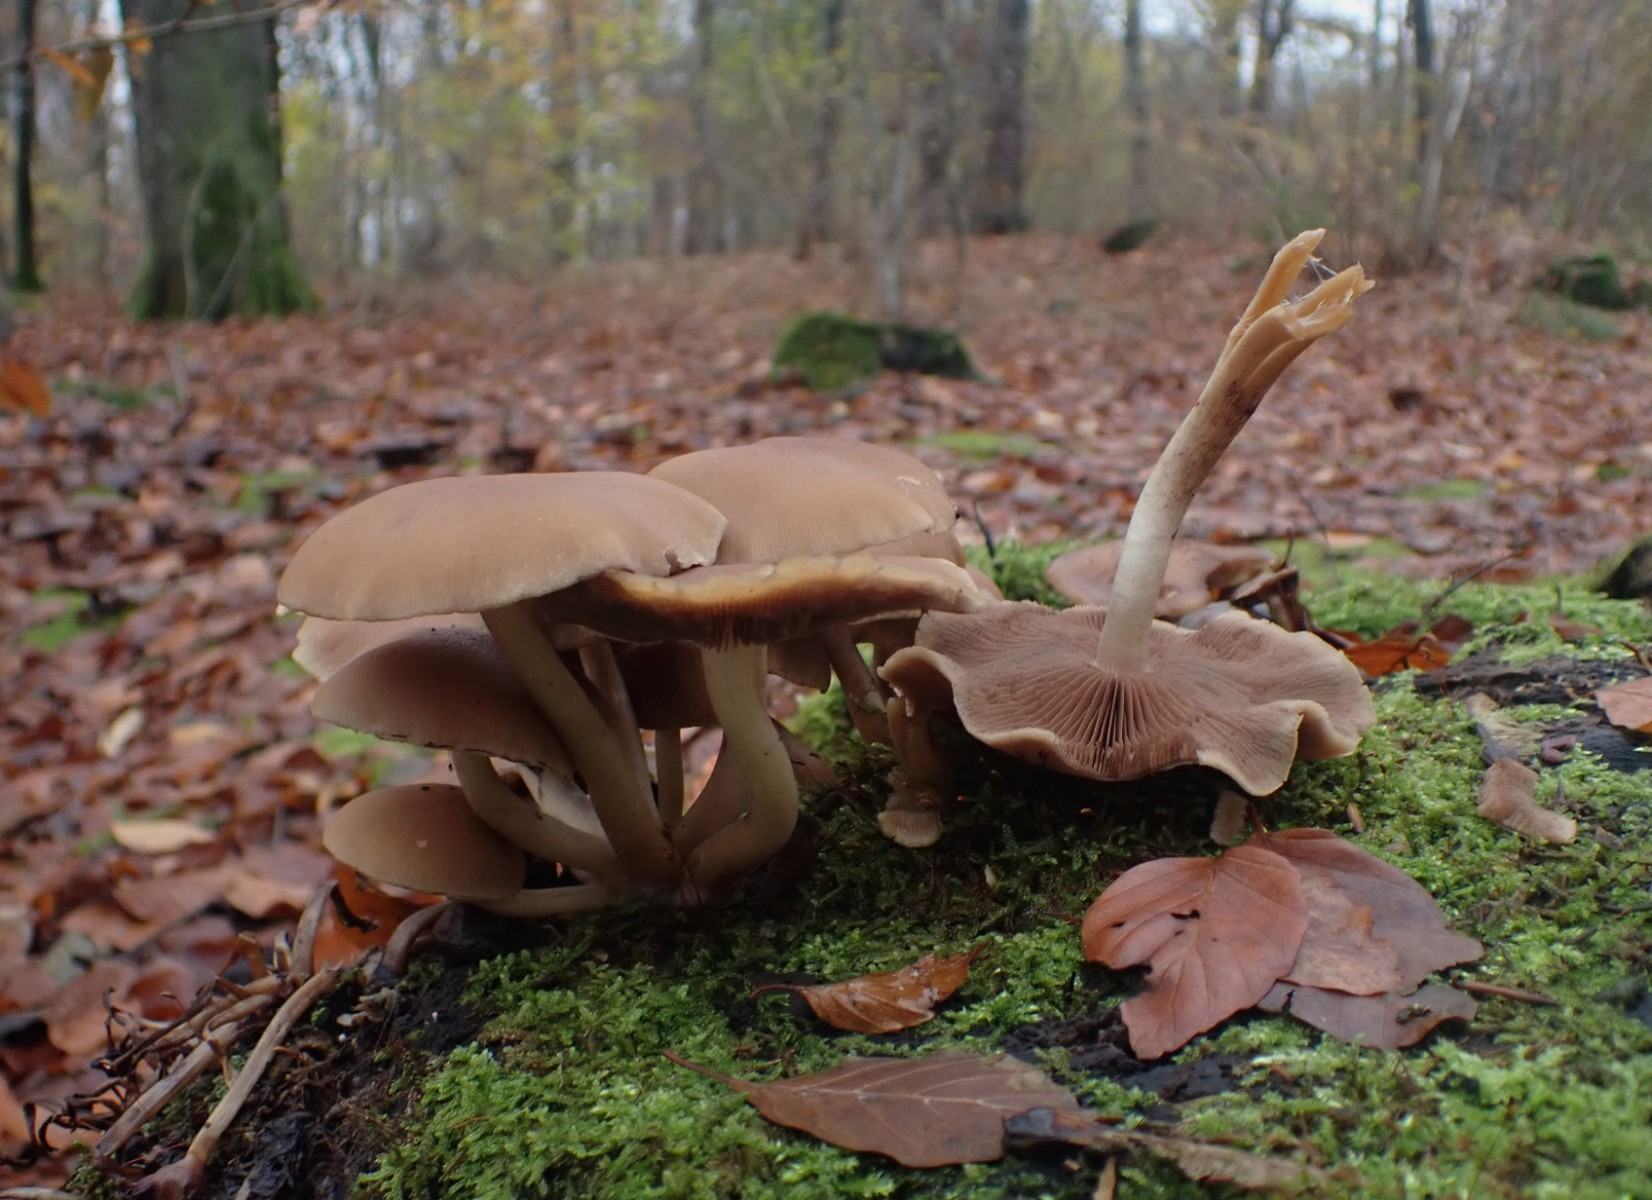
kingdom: Fungi
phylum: Basidiomycota
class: Agaricomycetes
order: Agaricales
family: Psathyrellaceae
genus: Psathyrella
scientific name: Psathyrella piluliformis
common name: lysstokket mørkhat
